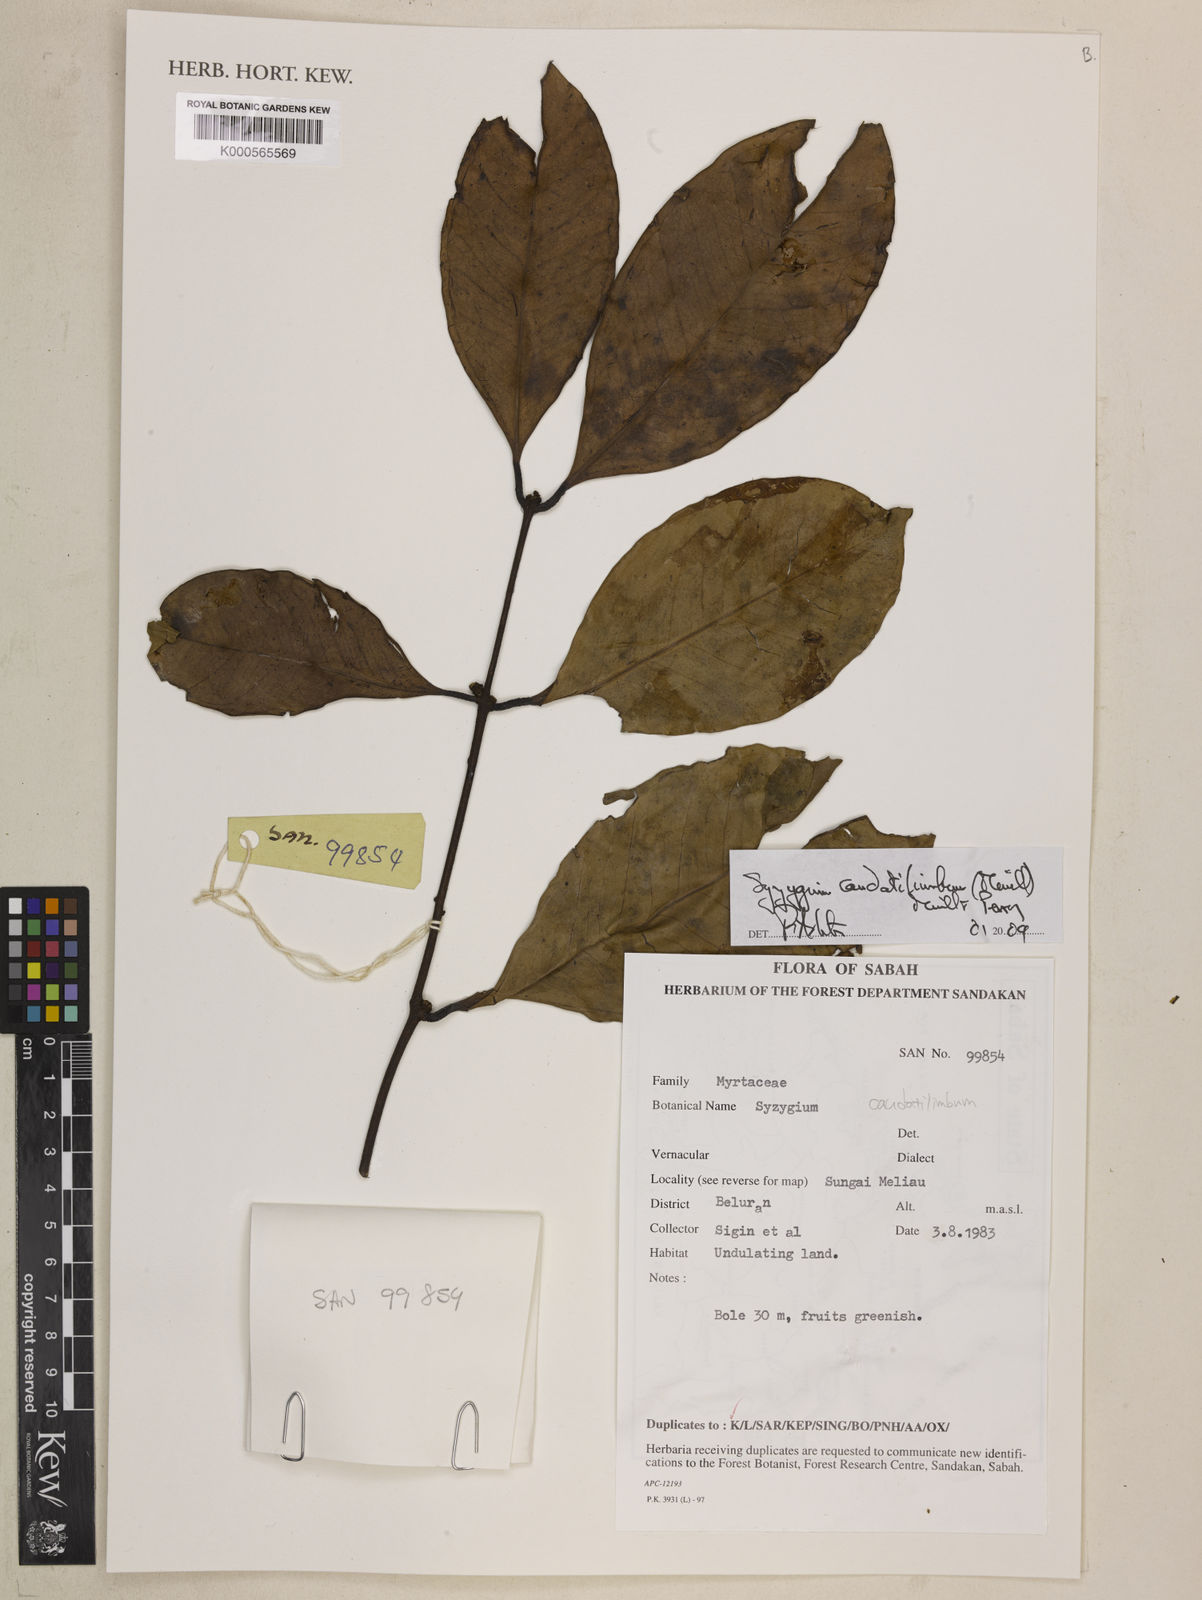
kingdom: Plantae
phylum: Tracheophyta
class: Magnoliopsida
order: Myrtales
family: Myrtaceae
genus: Syzygium
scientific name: Syzygium caudatilimbum
